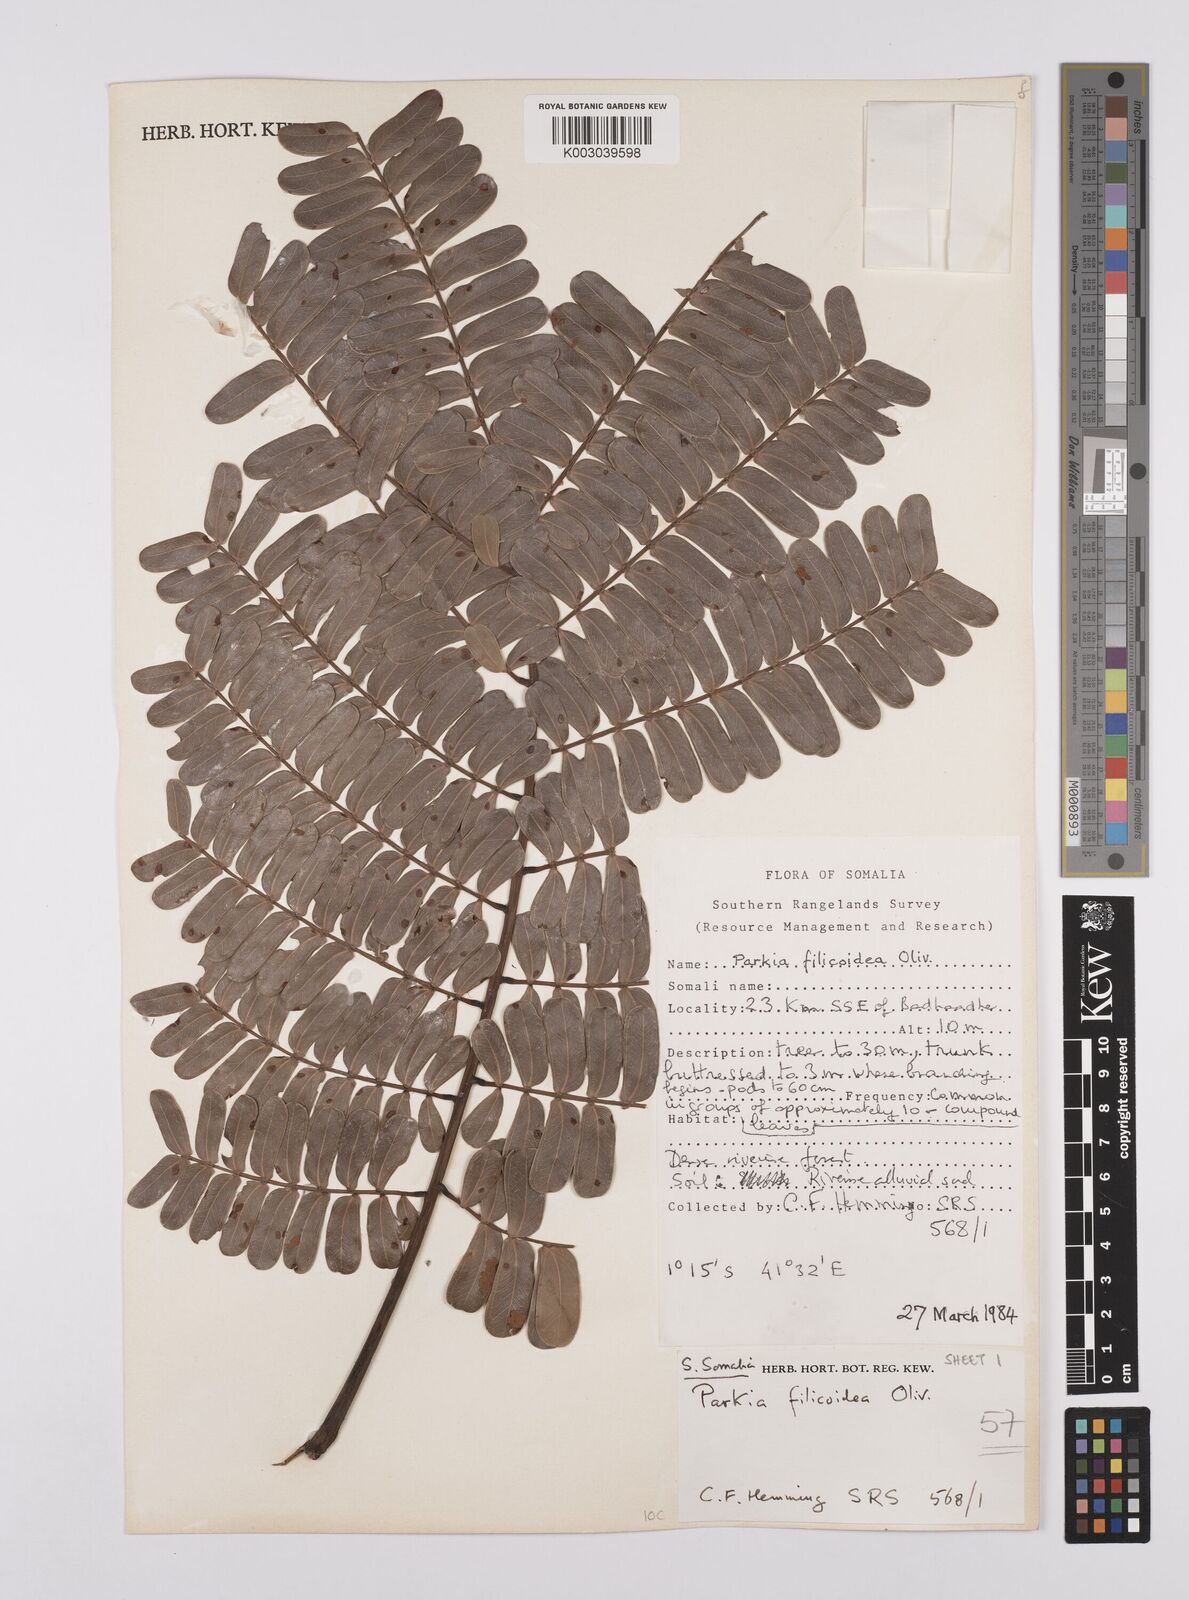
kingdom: Plantae
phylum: Tracheophyta
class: Magnoliopsida
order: Fabales
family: Fabaceae
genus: Parkia
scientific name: Parkia filicoidea
